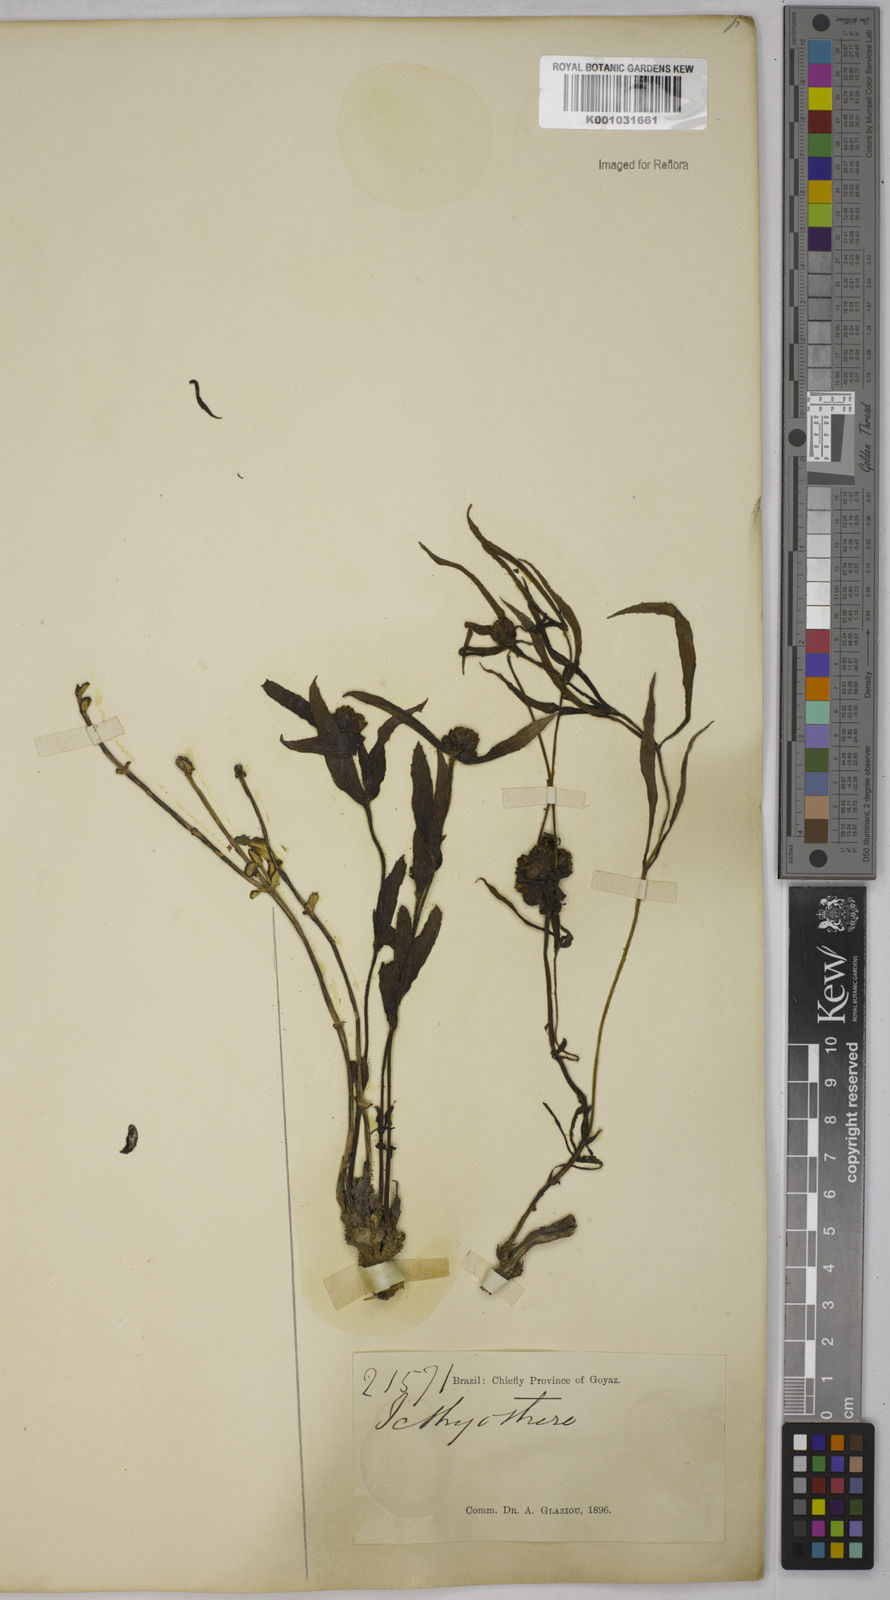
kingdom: Plantae
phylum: Tracheophyta
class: Magnoliopsida
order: Asterales
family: Asteraceae
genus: Ichthyothere
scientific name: Ichthyothere
